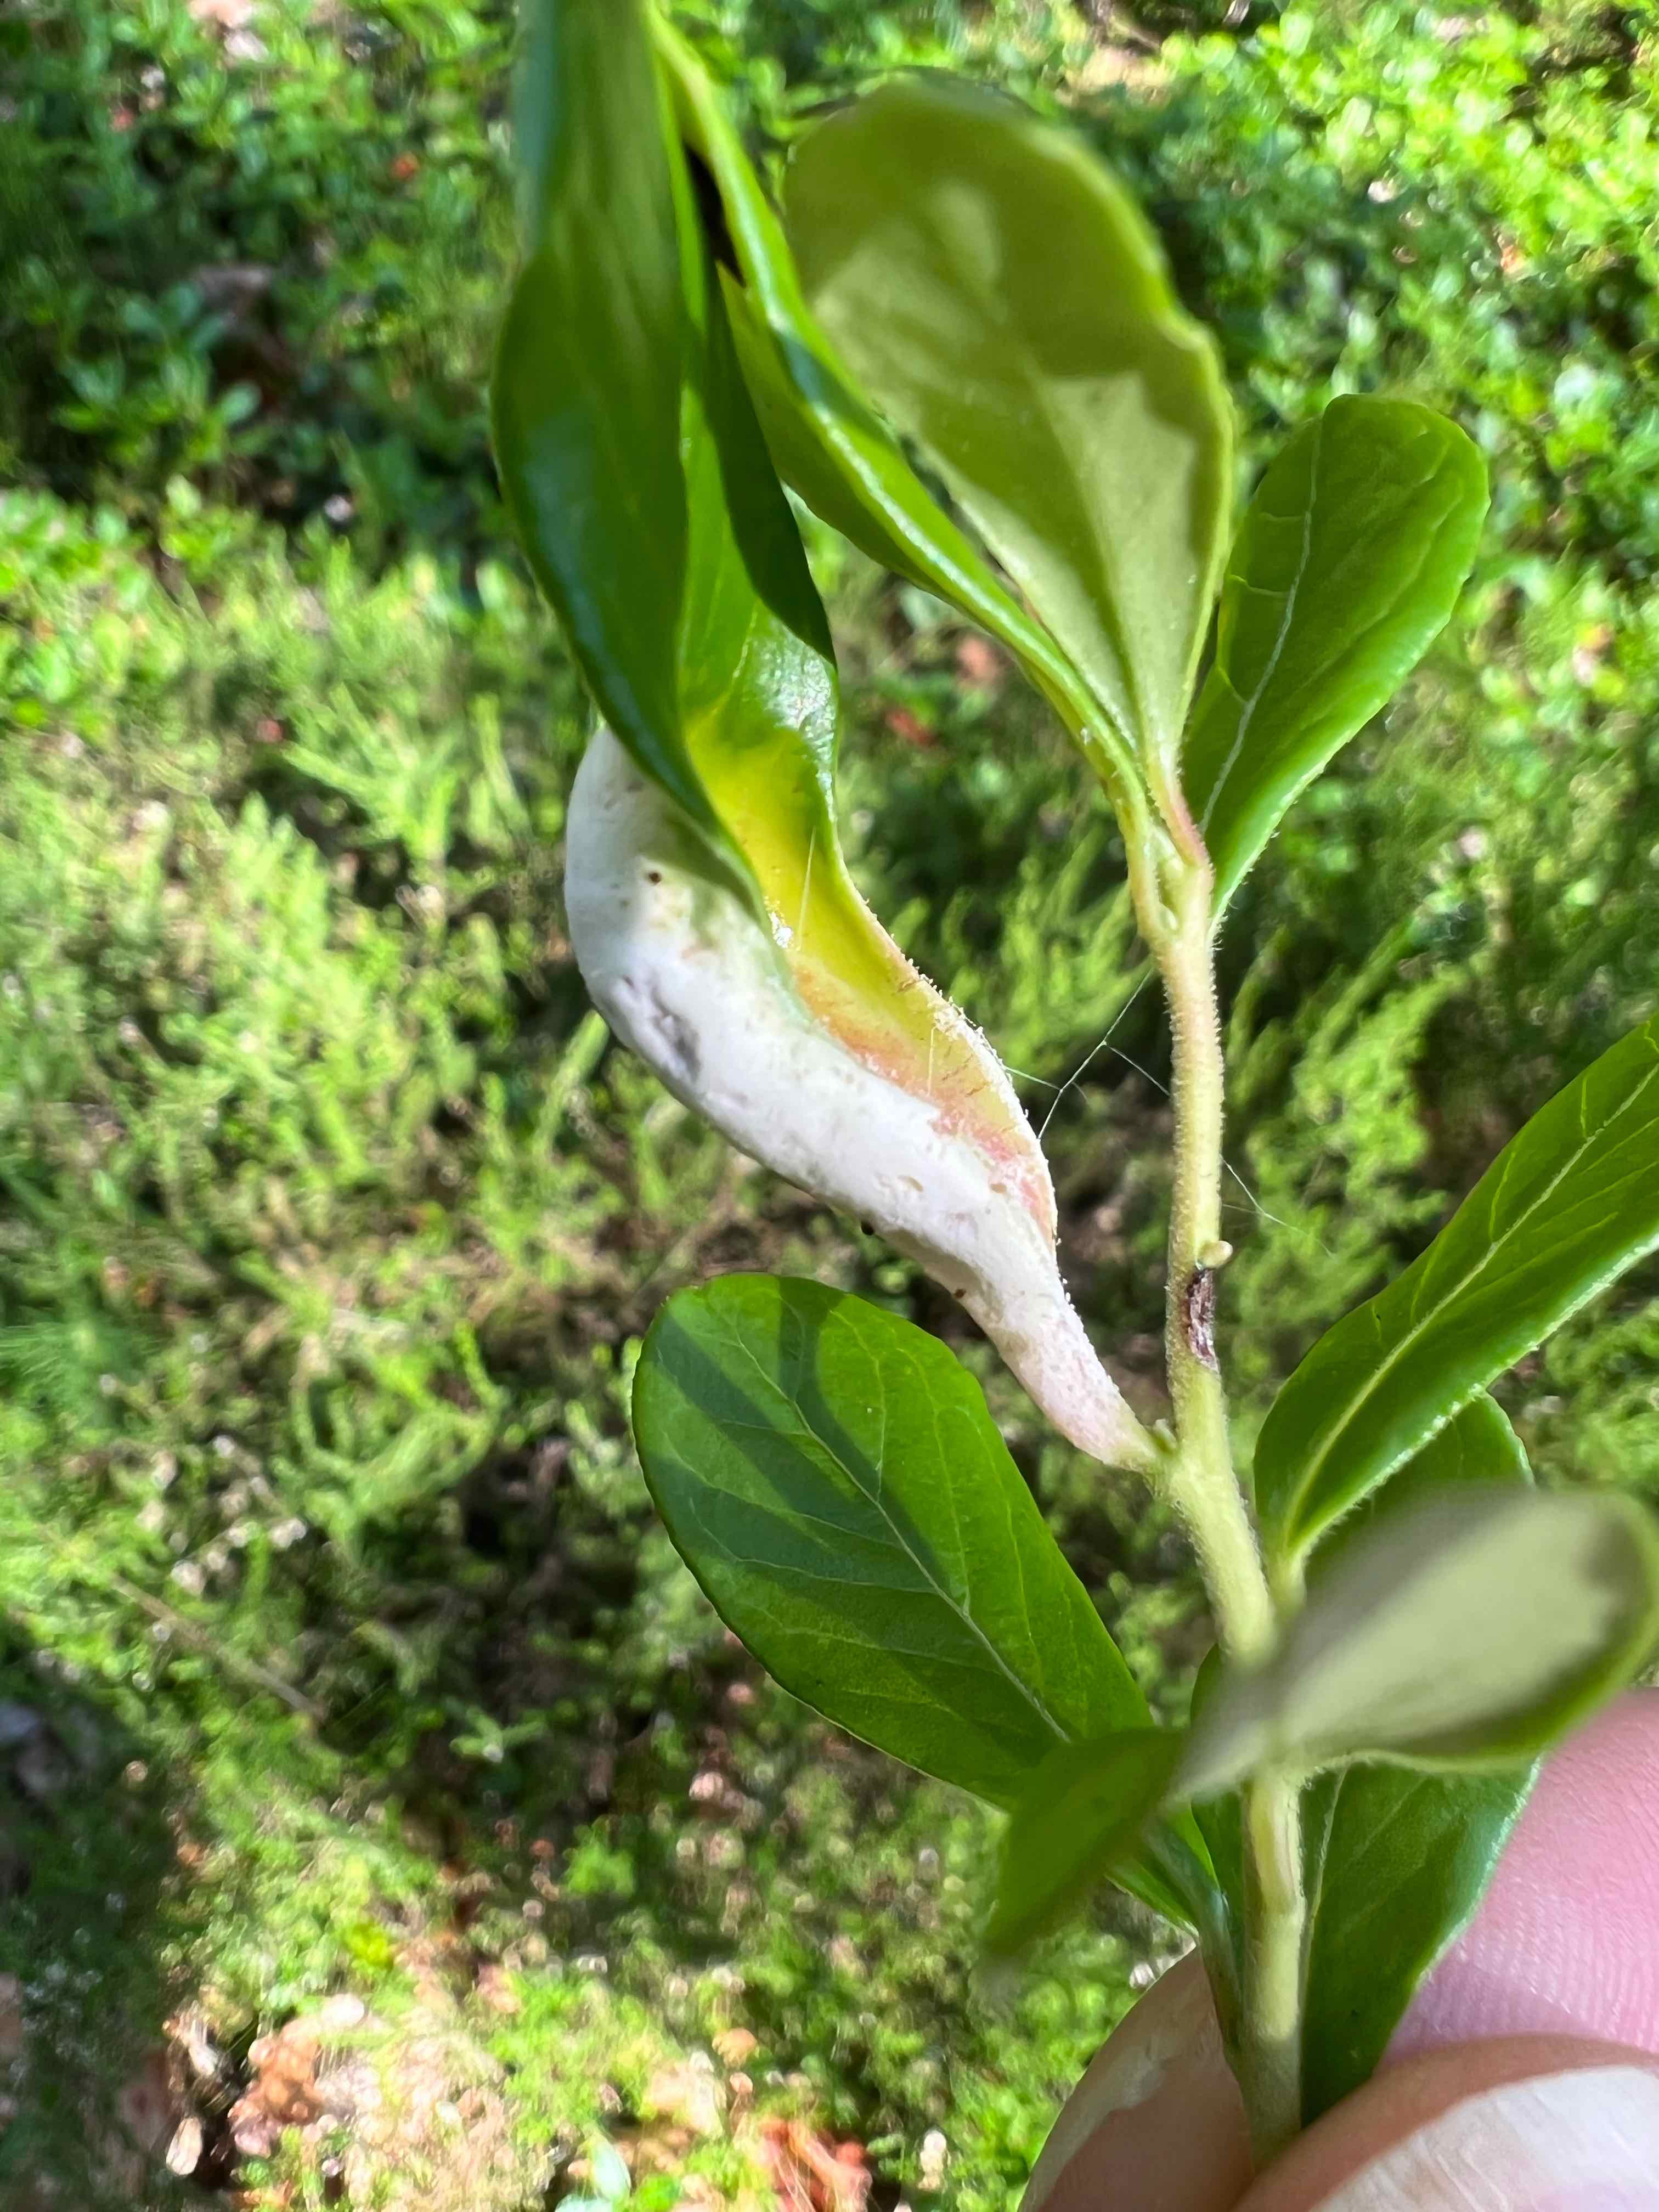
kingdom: Fungi
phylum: Basidiomycota
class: Exobasidiomycetes
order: Exobasidiales
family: Exobasidiaceae
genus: Exobasidium
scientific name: Exobasidium vaccinii
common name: tyttebærblad-bøllesvamp
